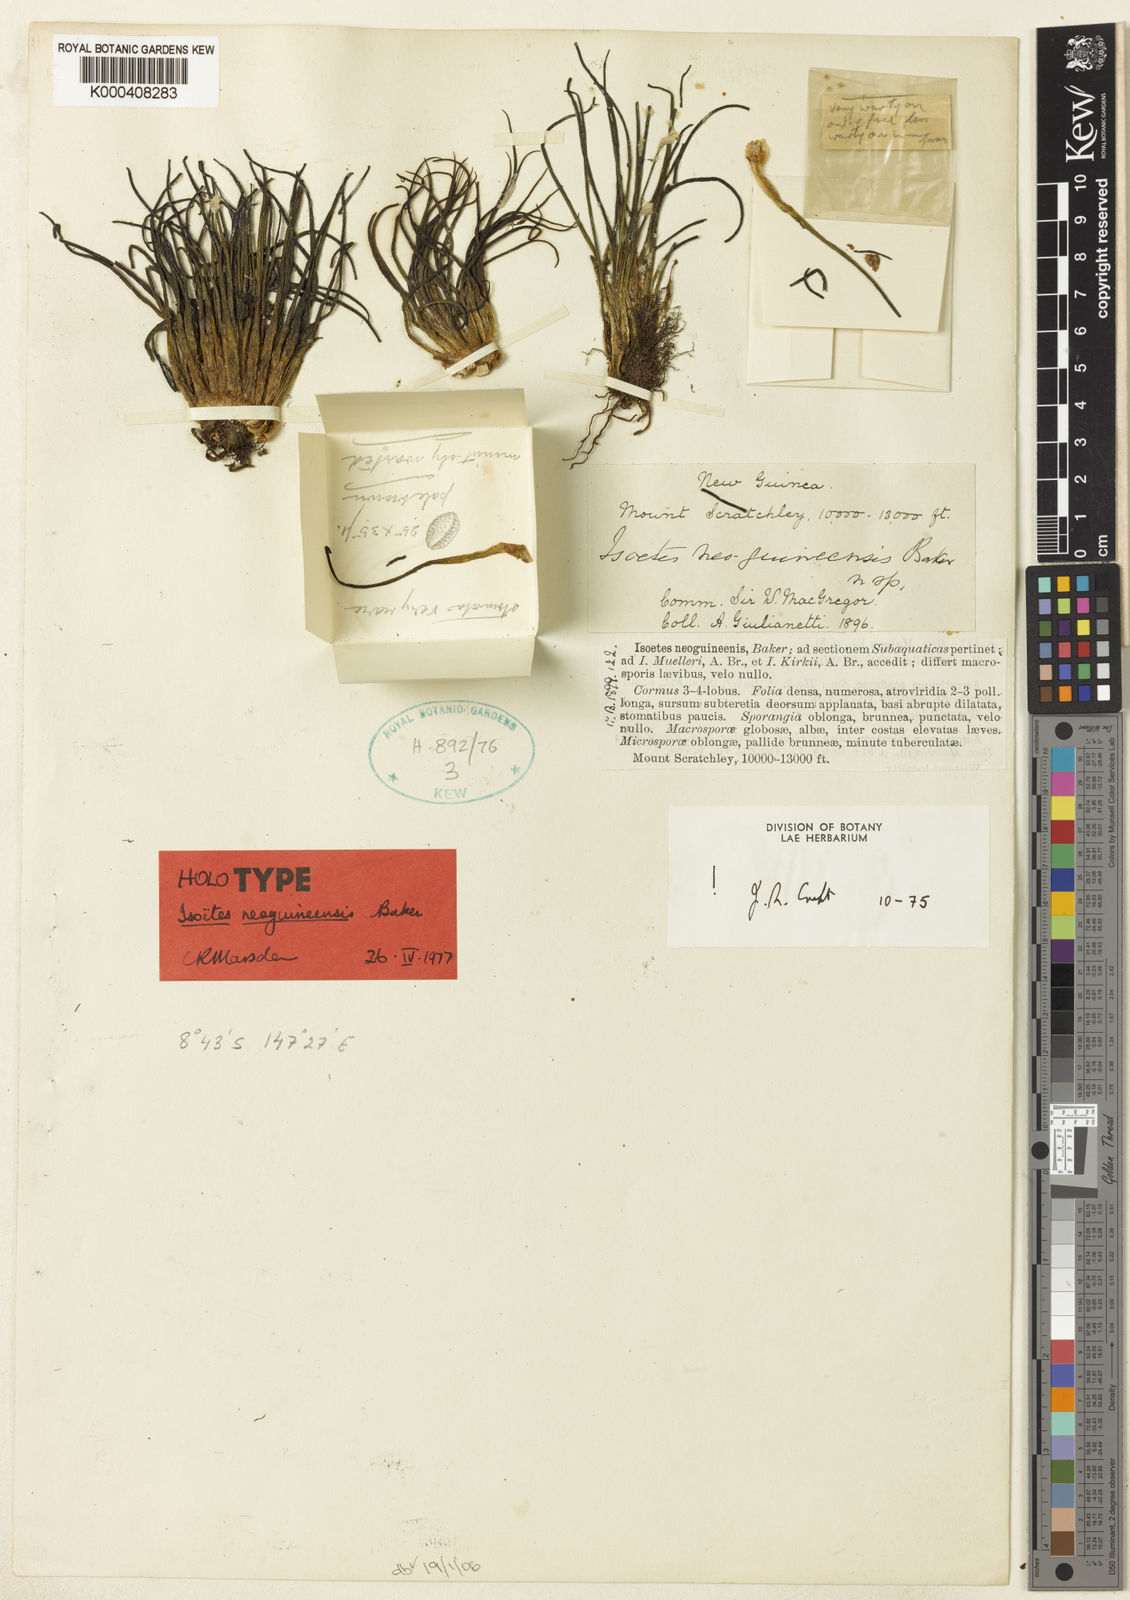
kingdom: Plantae
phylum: Tracheophyta
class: Lycopodiopsida
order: Isoetales
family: Isoetaceae
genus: Isoetes
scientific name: Isoetes neoguineensis
